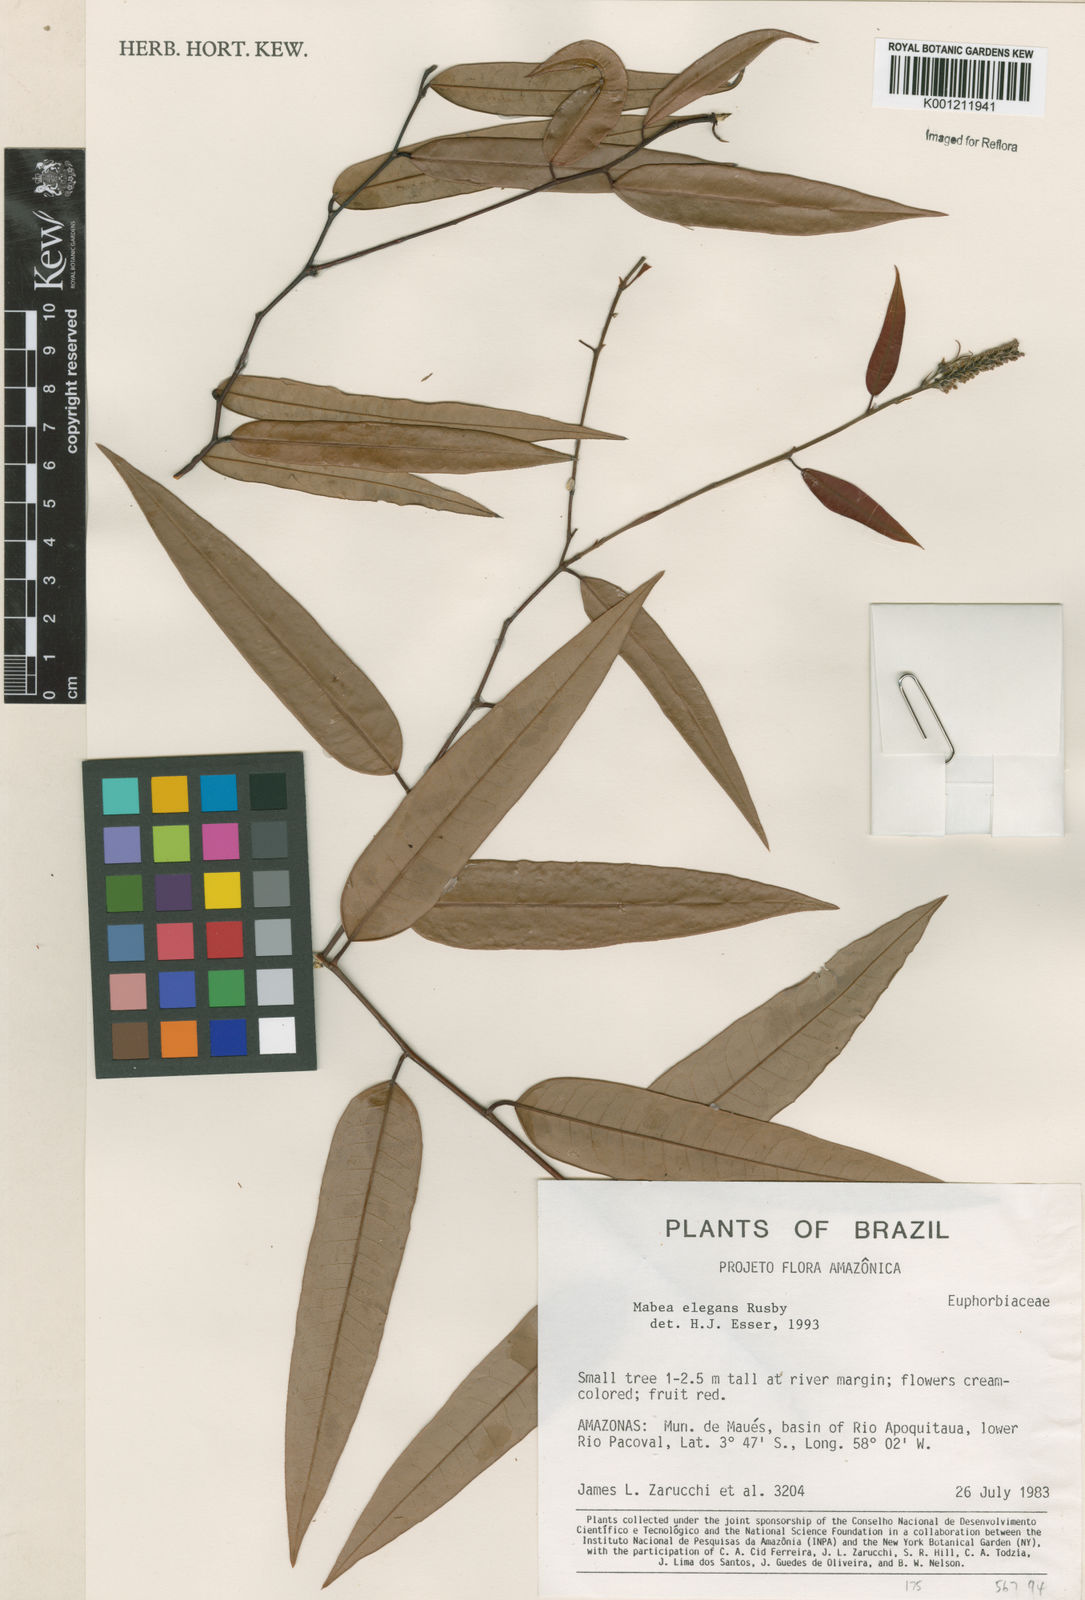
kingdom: Plantae
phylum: Tracheophyta
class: Magnoliopsida
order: Malpighiales
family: Euphorbiaceae
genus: Mabea
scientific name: Mabea elegans
